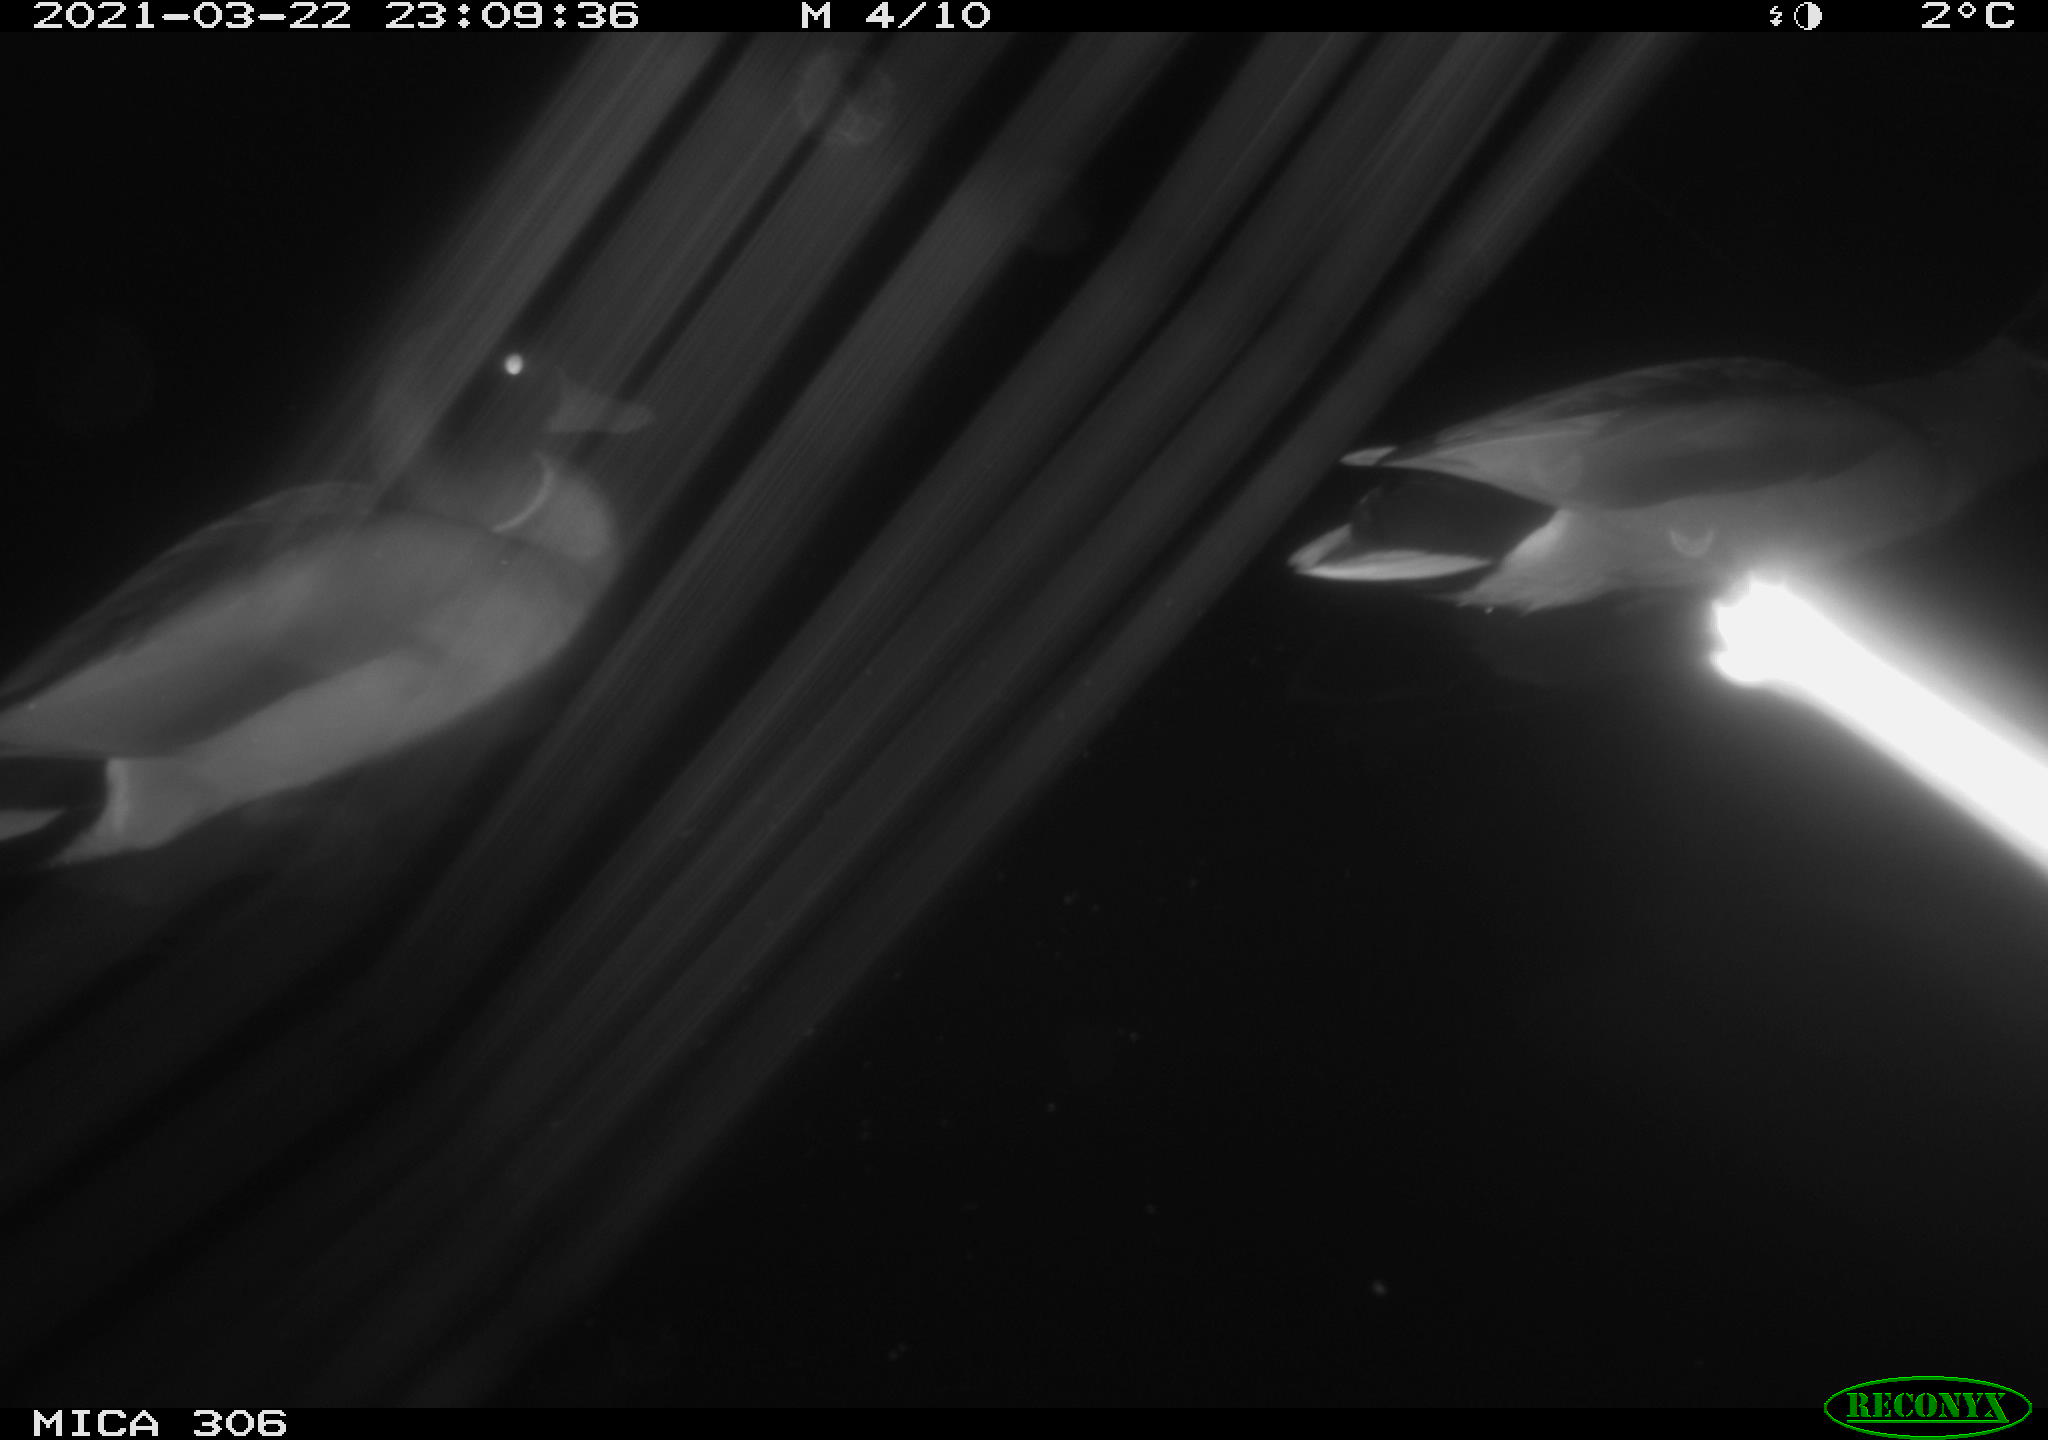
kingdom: Animalia
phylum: Chordata
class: Aves
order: Anseriformes
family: Anatidae
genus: Anas
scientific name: Anas platyrhynchos
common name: Mallard
